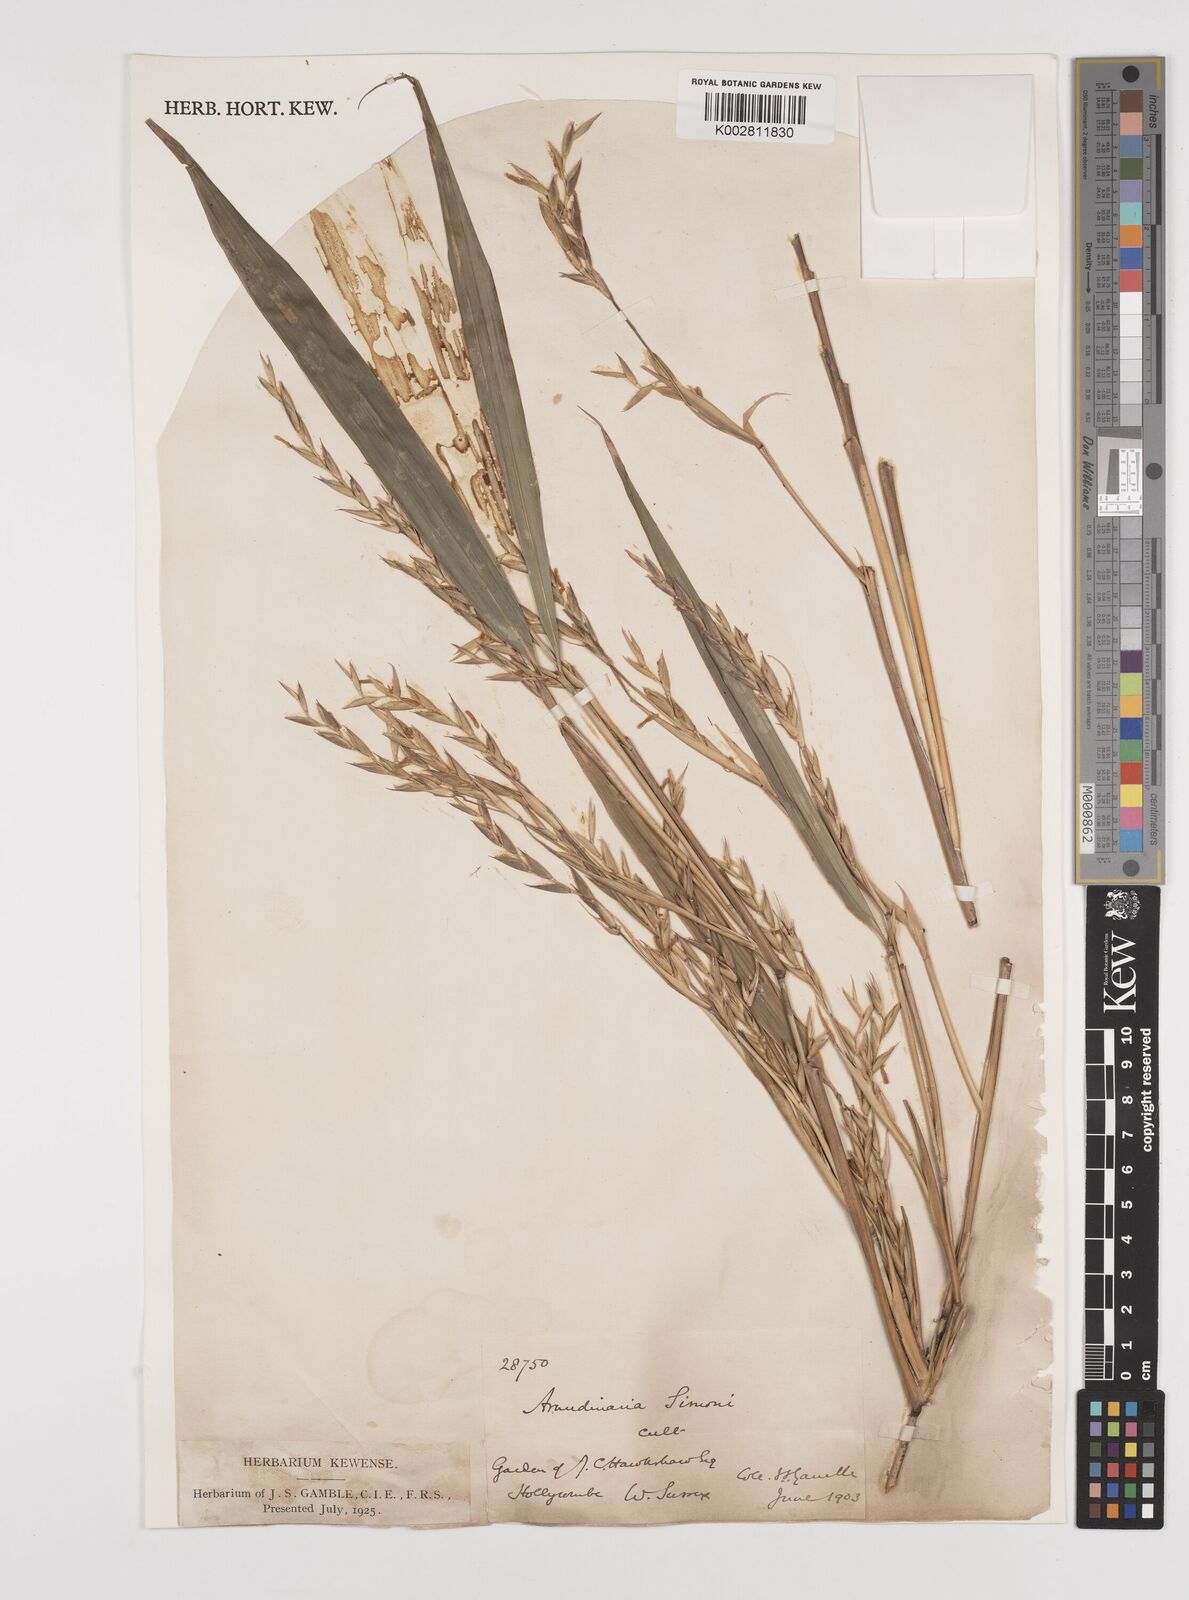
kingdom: Plantae
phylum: Tracheophyta
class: Liliopsida
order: Poales
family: Poaceae
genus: Pleioblastus
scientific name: Pleioblastus simonii
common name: Simon bamboo
